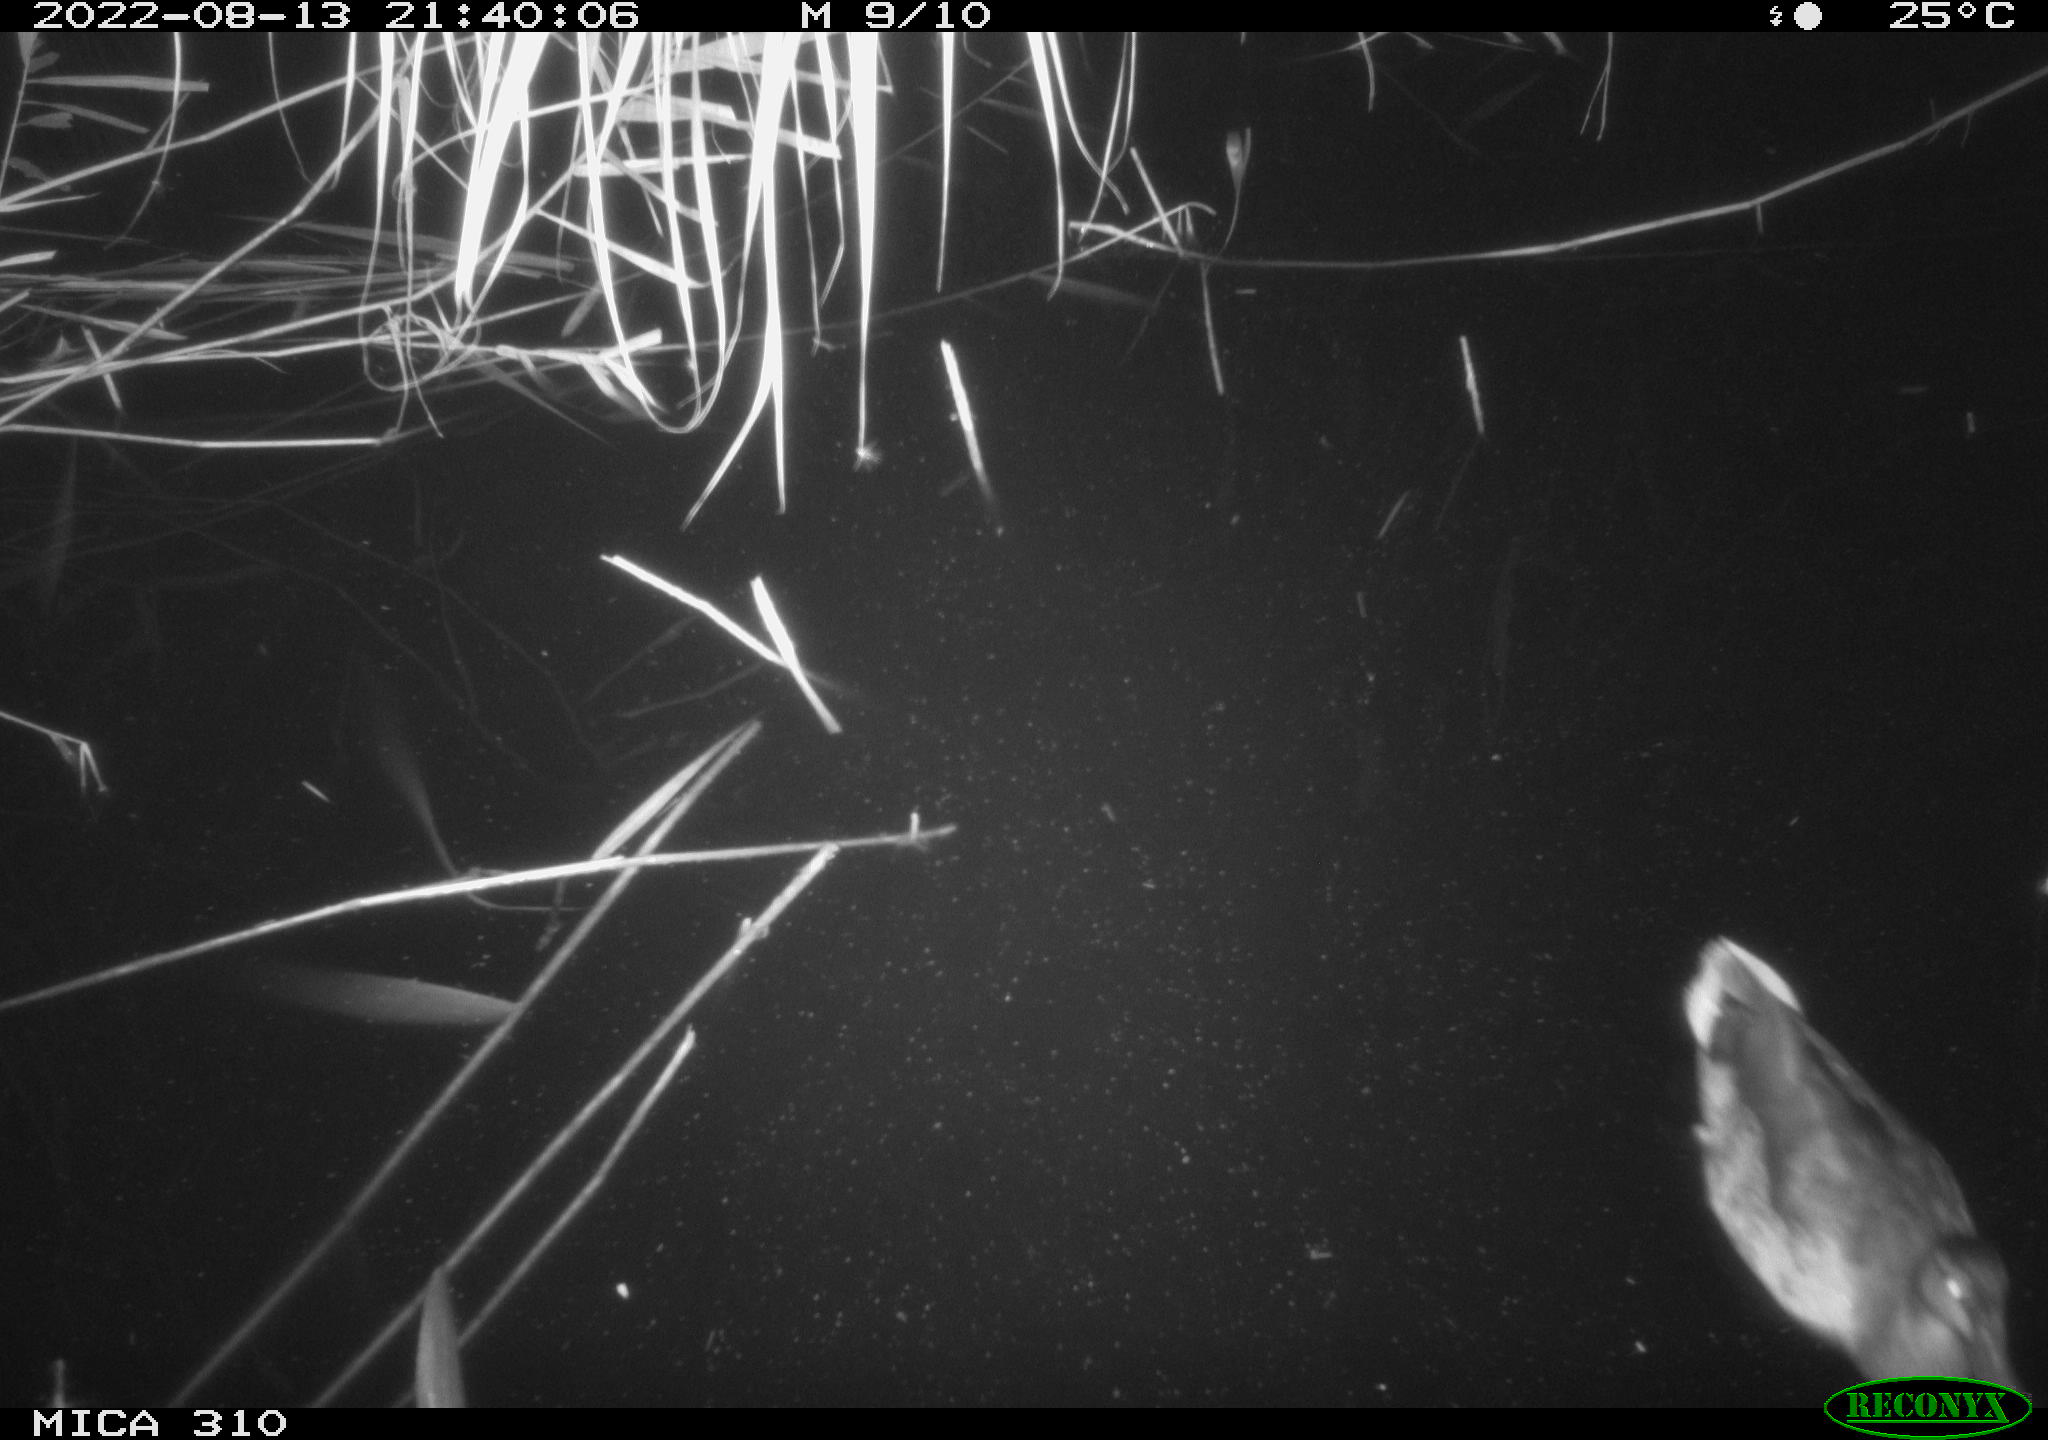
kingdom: Animalia
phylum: Chordata
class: Aves
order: Gruiformes
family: Rallidae
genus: Gallinula
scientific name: Gallinula chloropus
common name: Common moorhen
